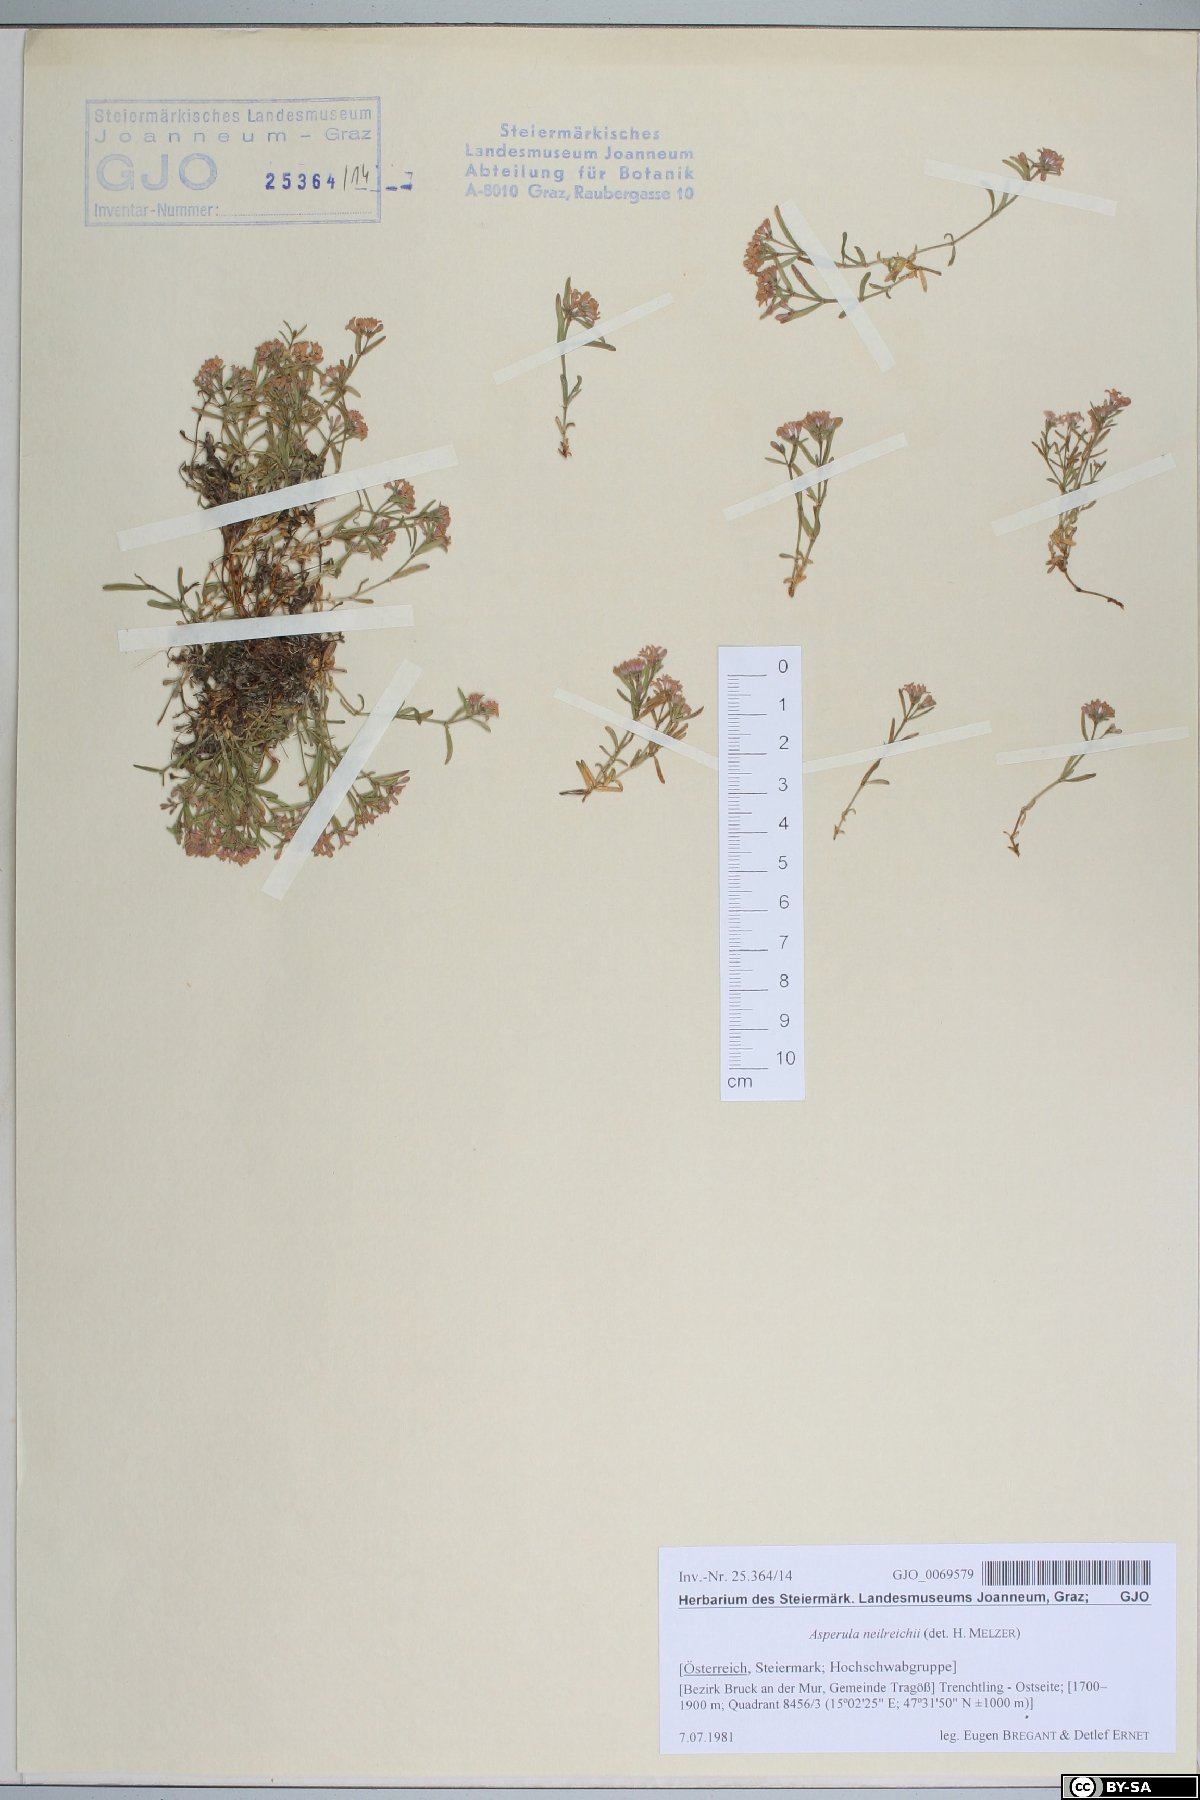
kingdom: Plantae
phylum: Tracheophyta
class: Magnoliopsida
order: Gentianales
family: Rubiaceae
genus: Cynanchica
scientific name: Cynanchica neilreichii
